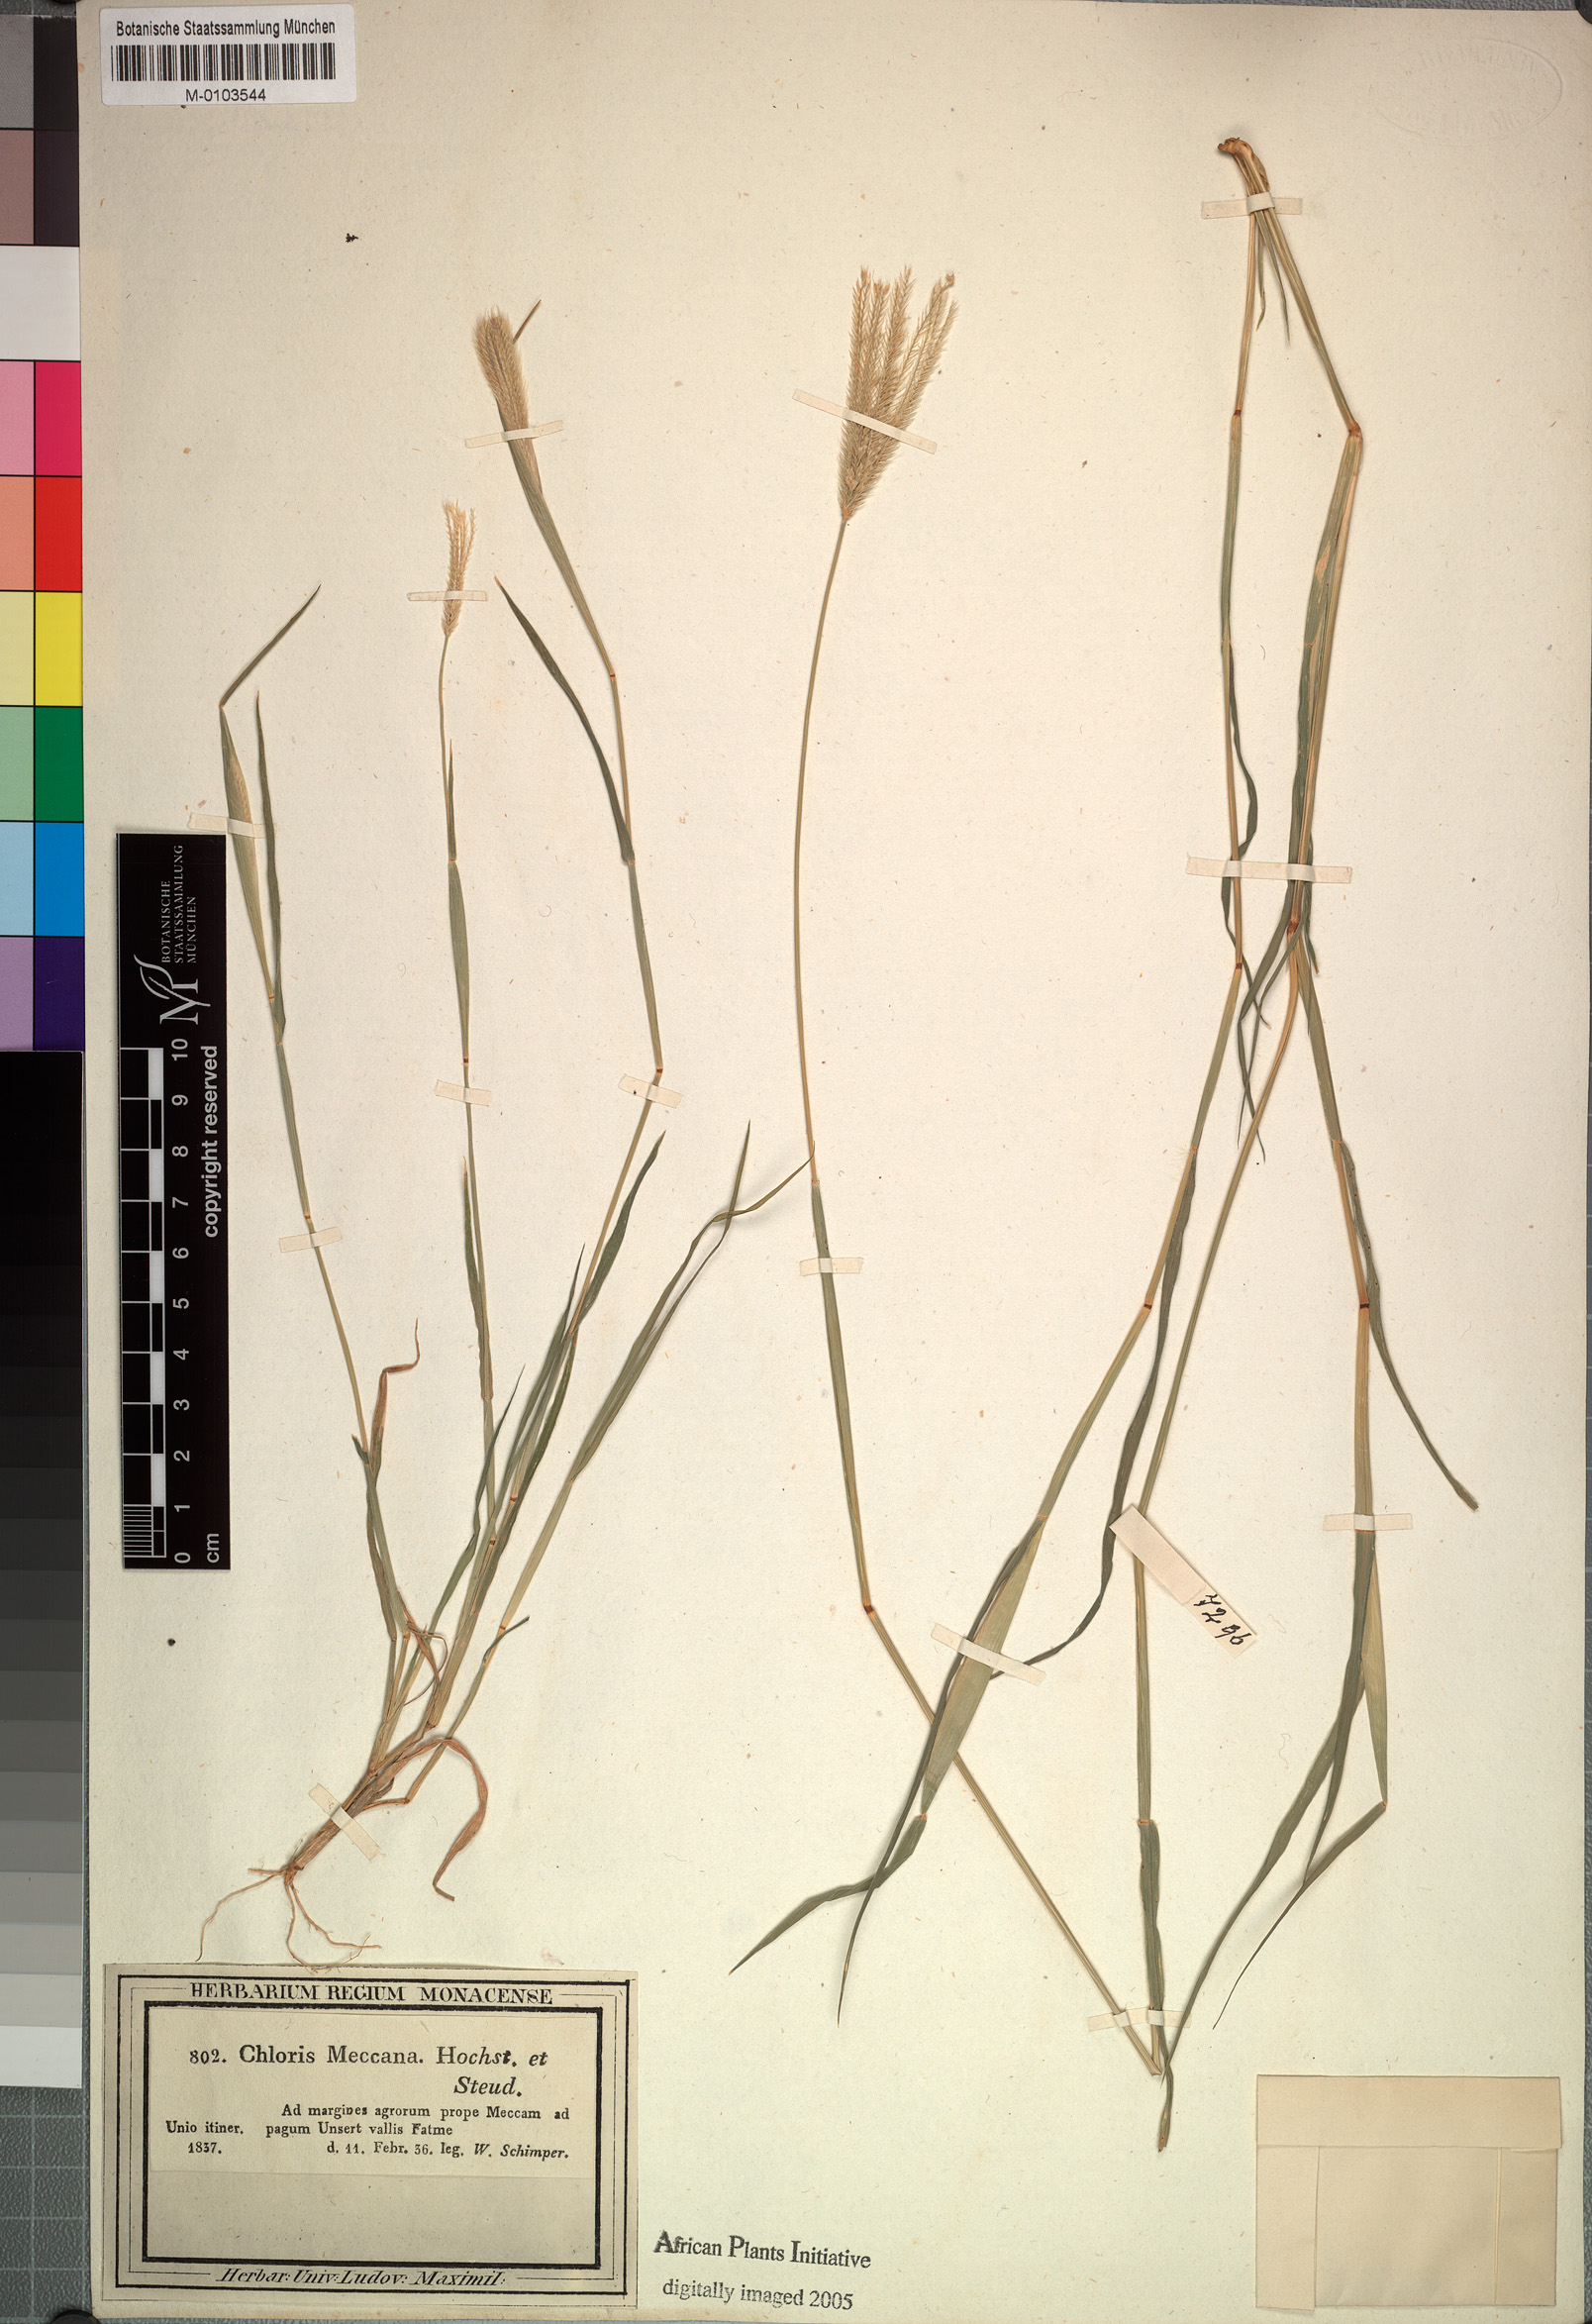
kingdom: Plantae
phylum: Tracheophyta
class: Liliopsida
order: Poales
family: Poaceae
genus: Chloris
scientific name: Chloris virgata
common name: Feathery rhodes-grass
